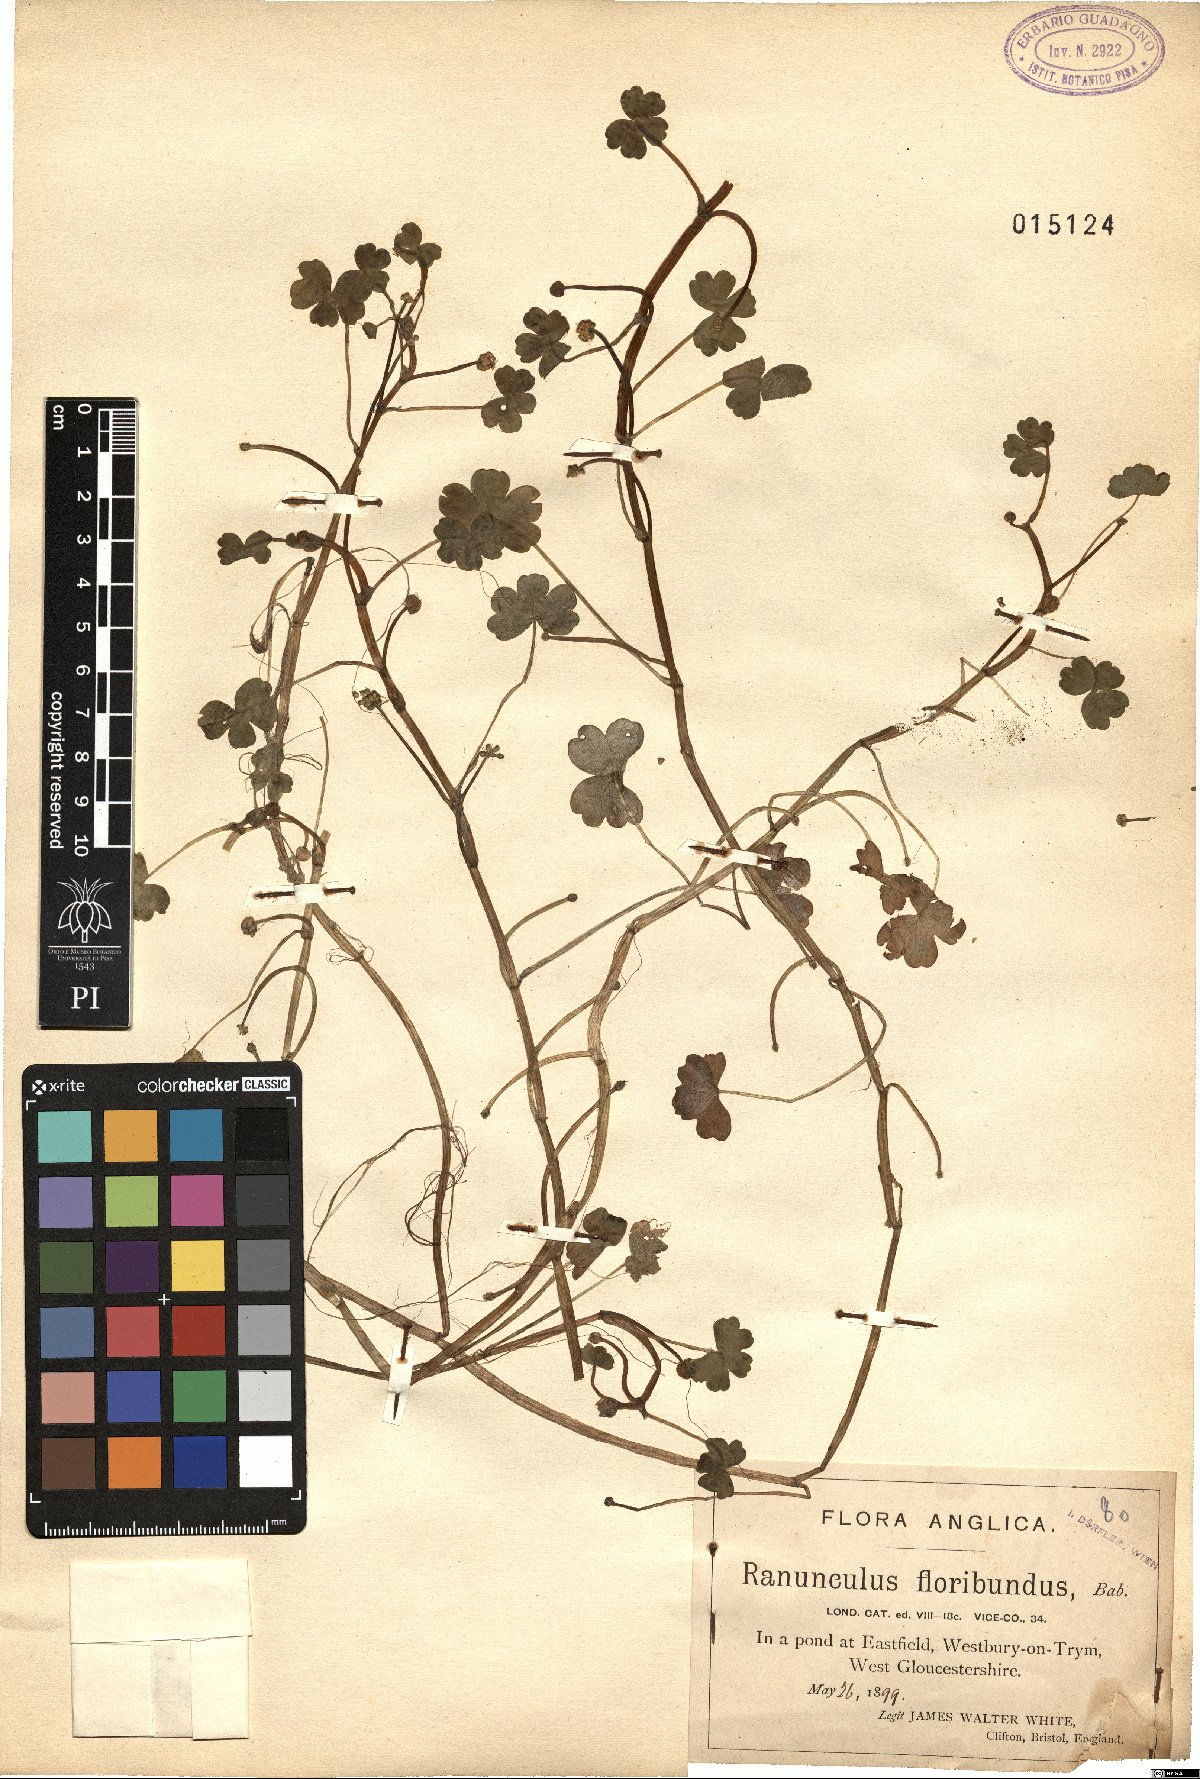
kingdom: Plantae
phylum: Tracheophyta
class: Magnoliopsida
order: Ranunculales
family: Ranunculaceae
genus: Ranunculus
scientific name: Ranunculus peltatus
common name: Pond water-crowfoot
